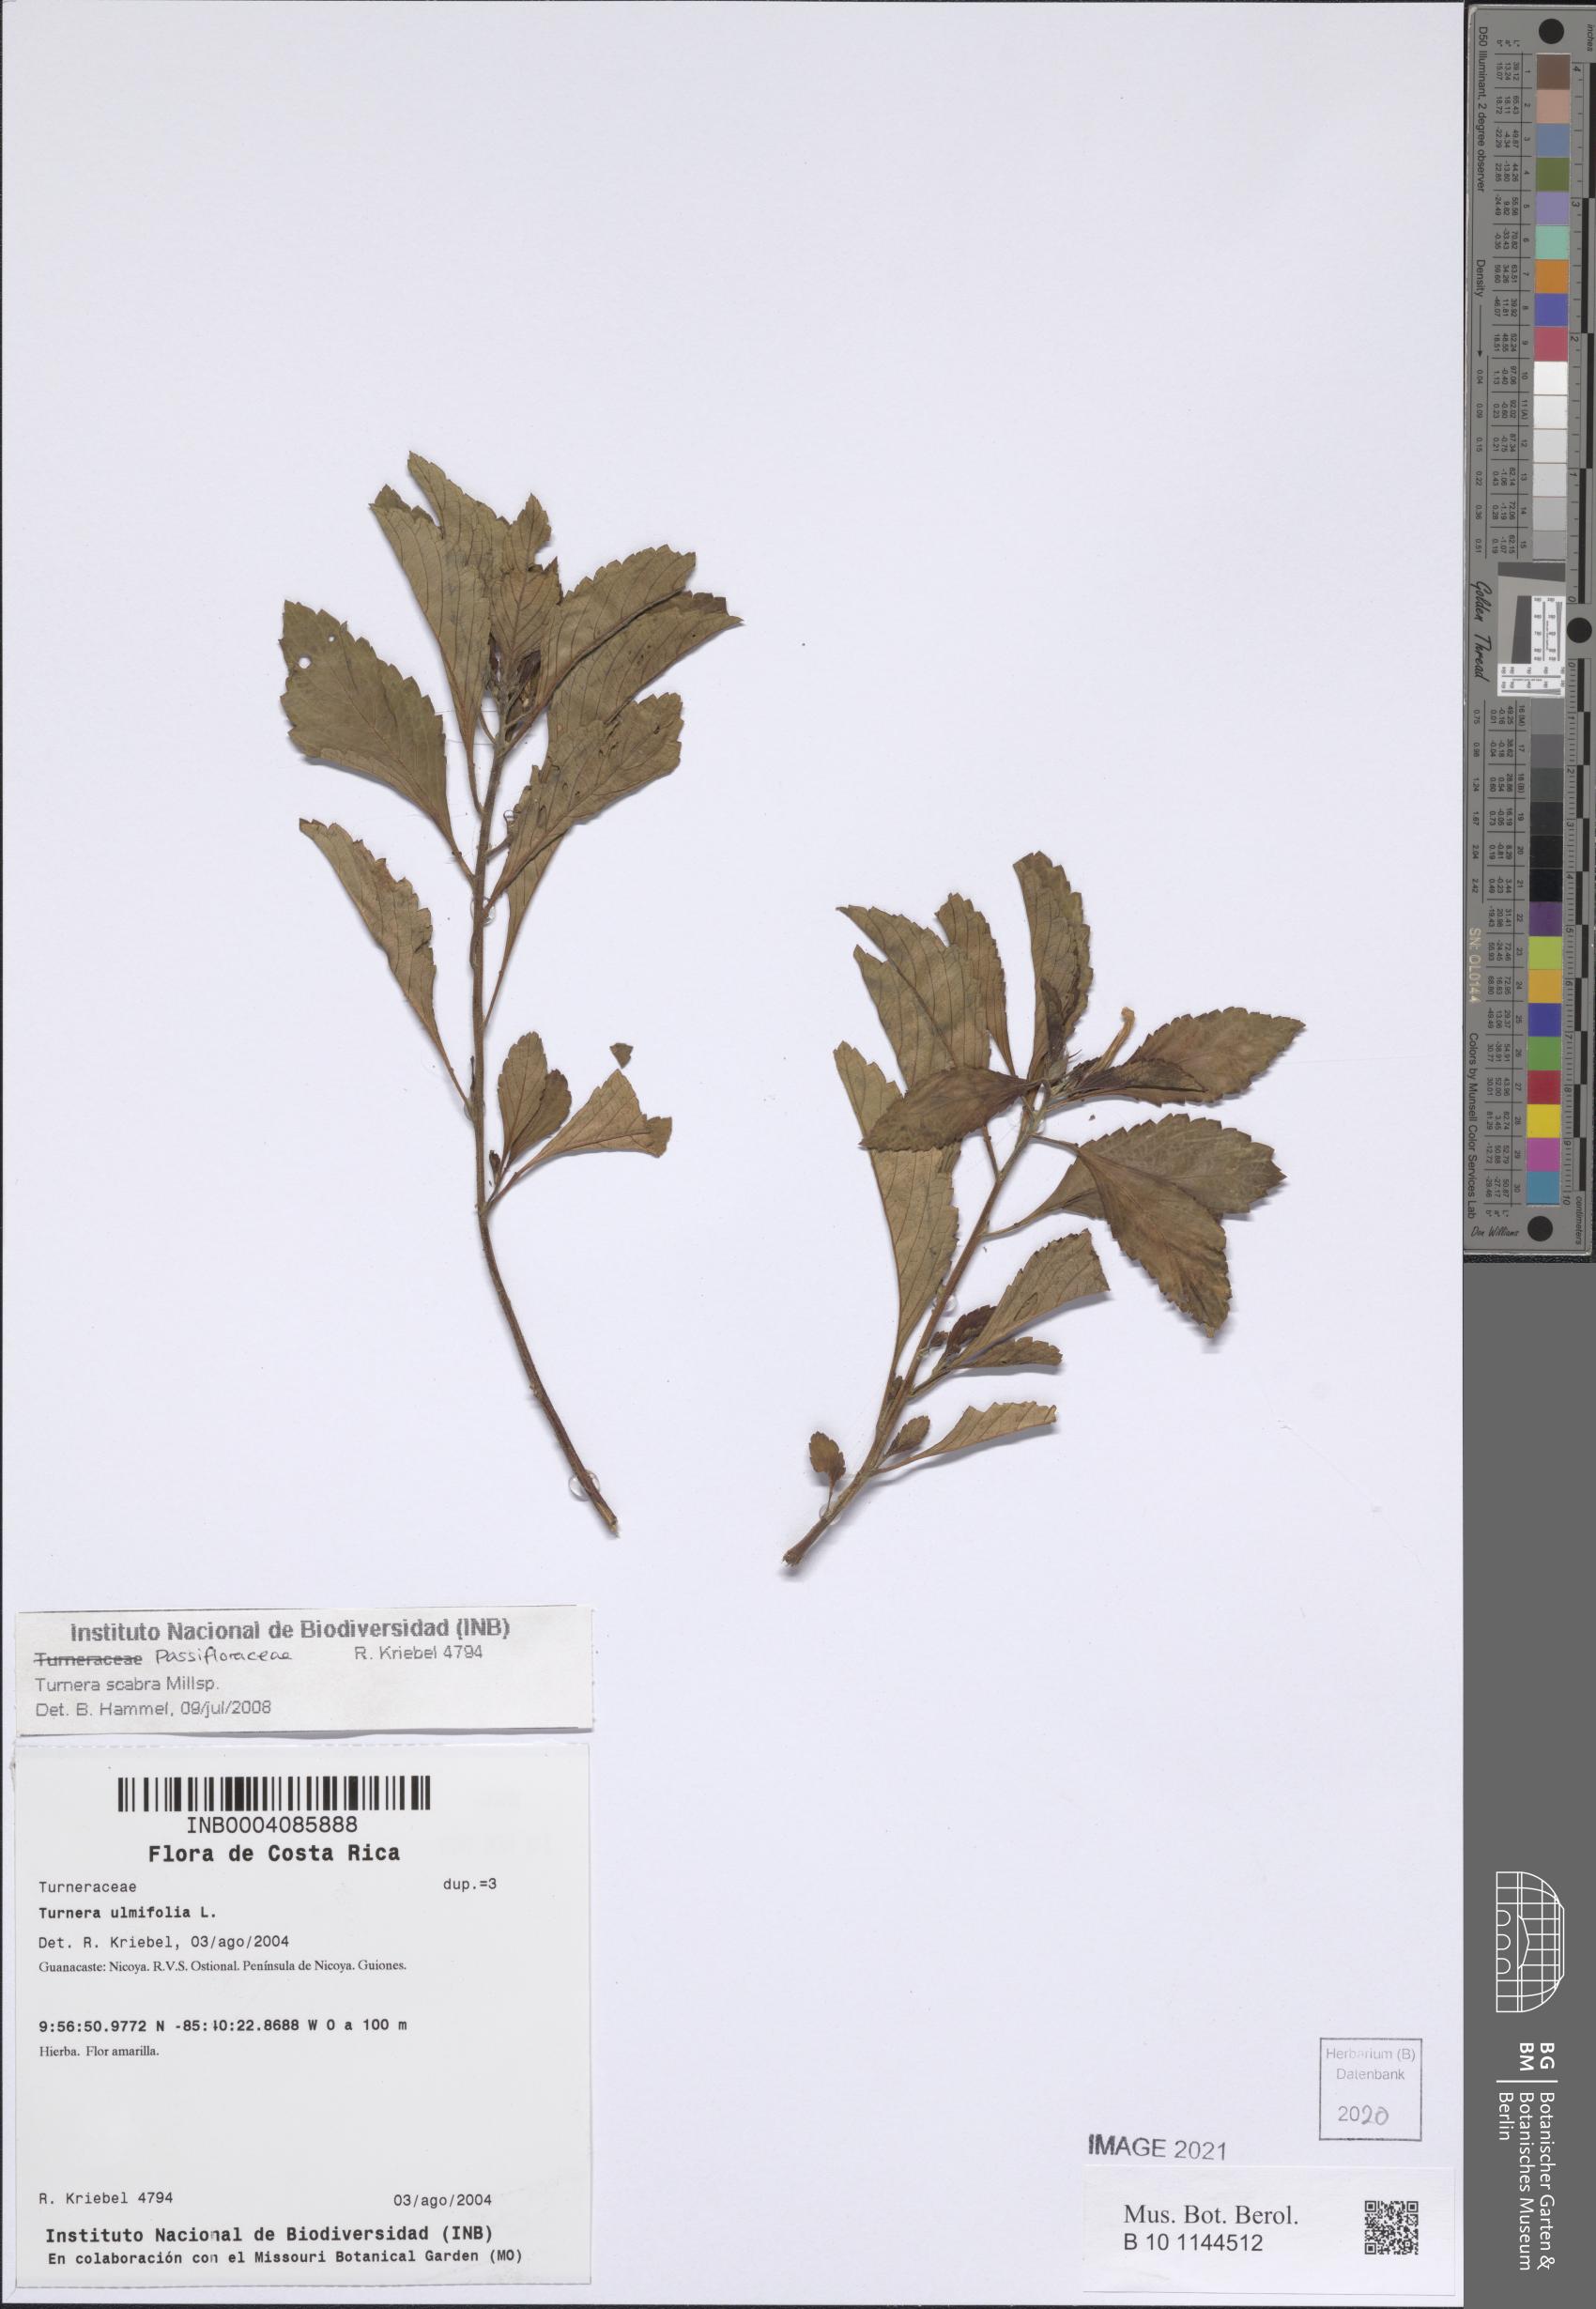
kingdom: Plantae
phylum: Tracheophyta
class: Magnoliopsida
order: Malpighiales
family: Turneraceae
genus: Turnera
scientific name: Turnera scabra
